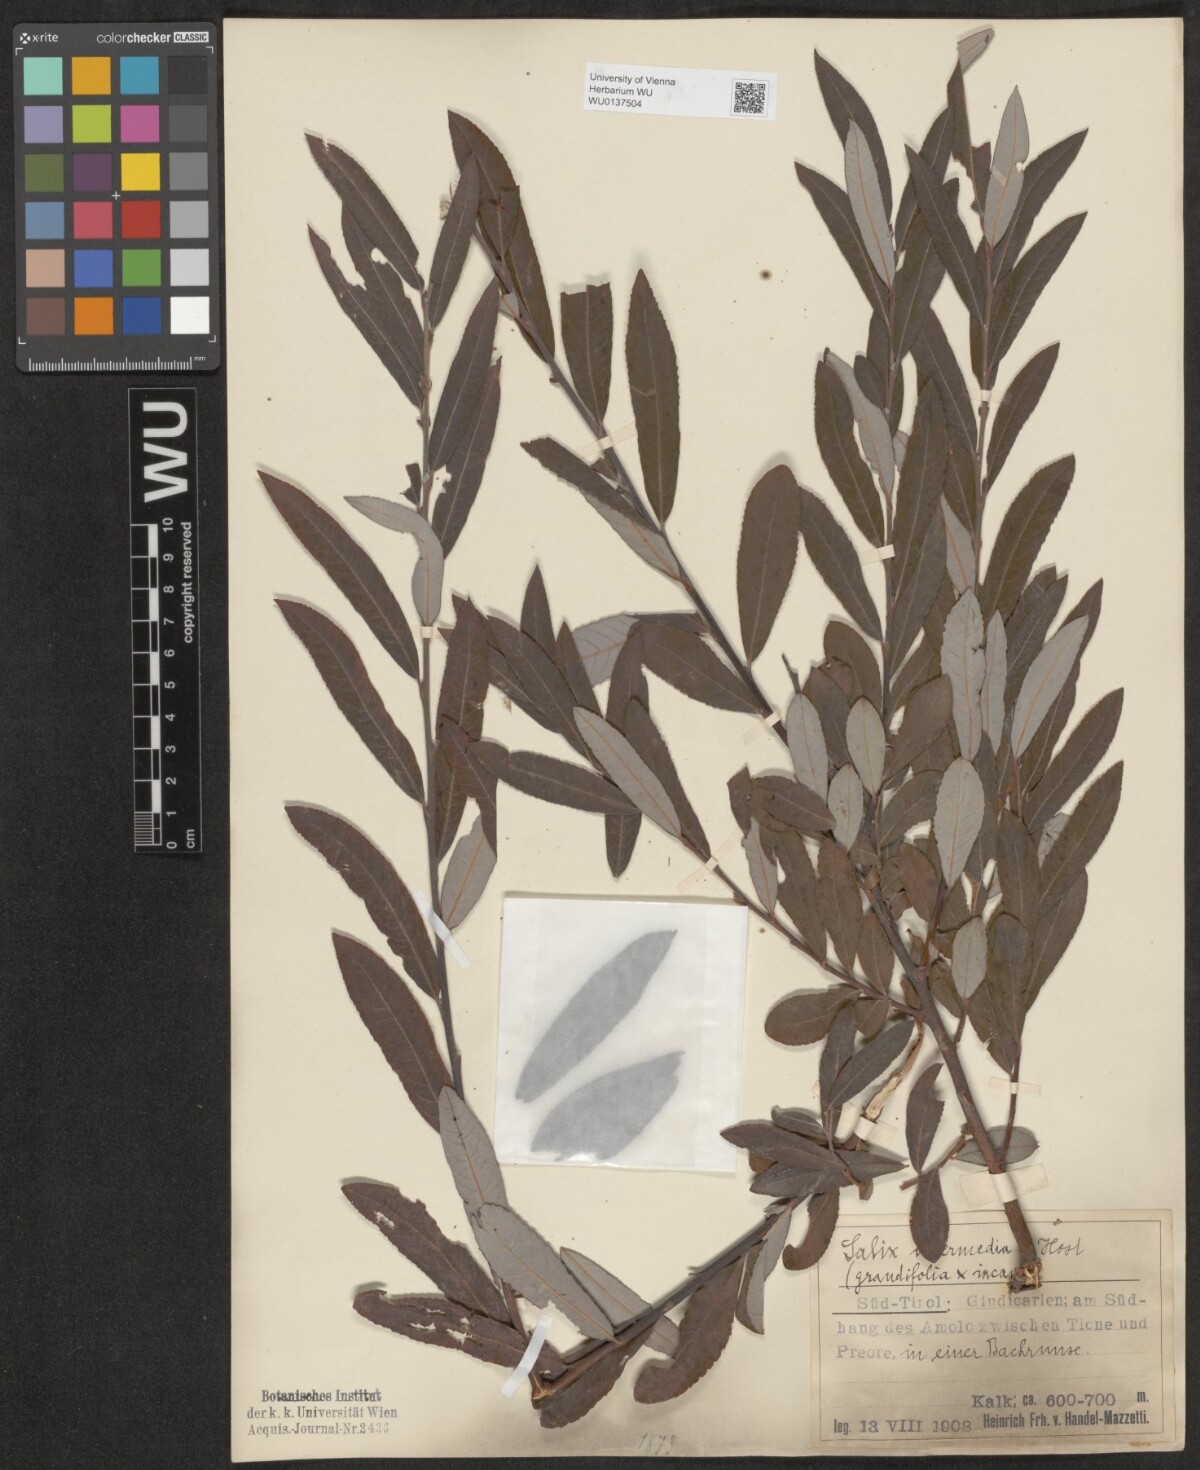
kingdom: Plantae
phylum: Tracheophyta
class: Magnoliopsida
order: Malpighiales
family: Salicaceae
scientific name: Salicaceae
